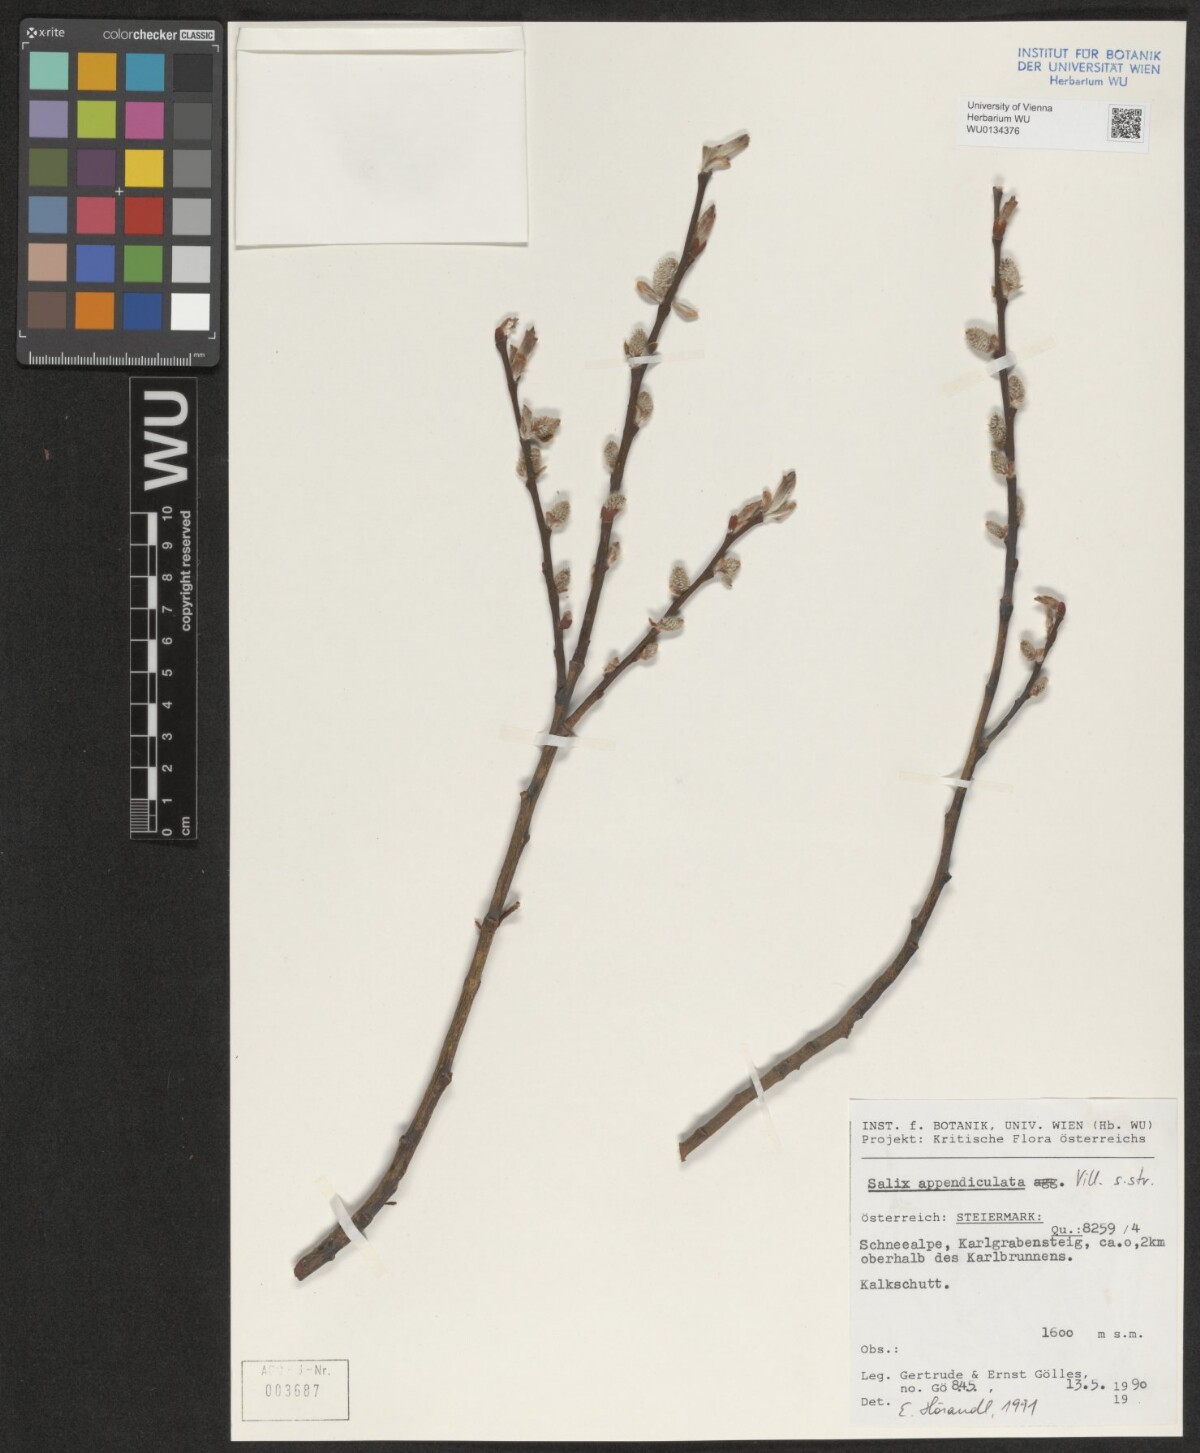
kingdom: Plantae
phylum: Tracheophyta
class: Magnoliopsida
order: Malpighiales
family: Salicaceae
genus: Salix
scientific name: Salix appendiculata
